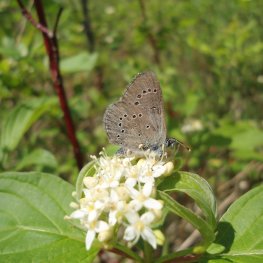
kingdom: Animalia
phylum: Arthropoda
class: Insecta
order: Lepidoptera
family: Lycaenidae
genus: Glaucopsyche
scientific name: Glaucopsyche lygdamus
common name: Silvery Blue
